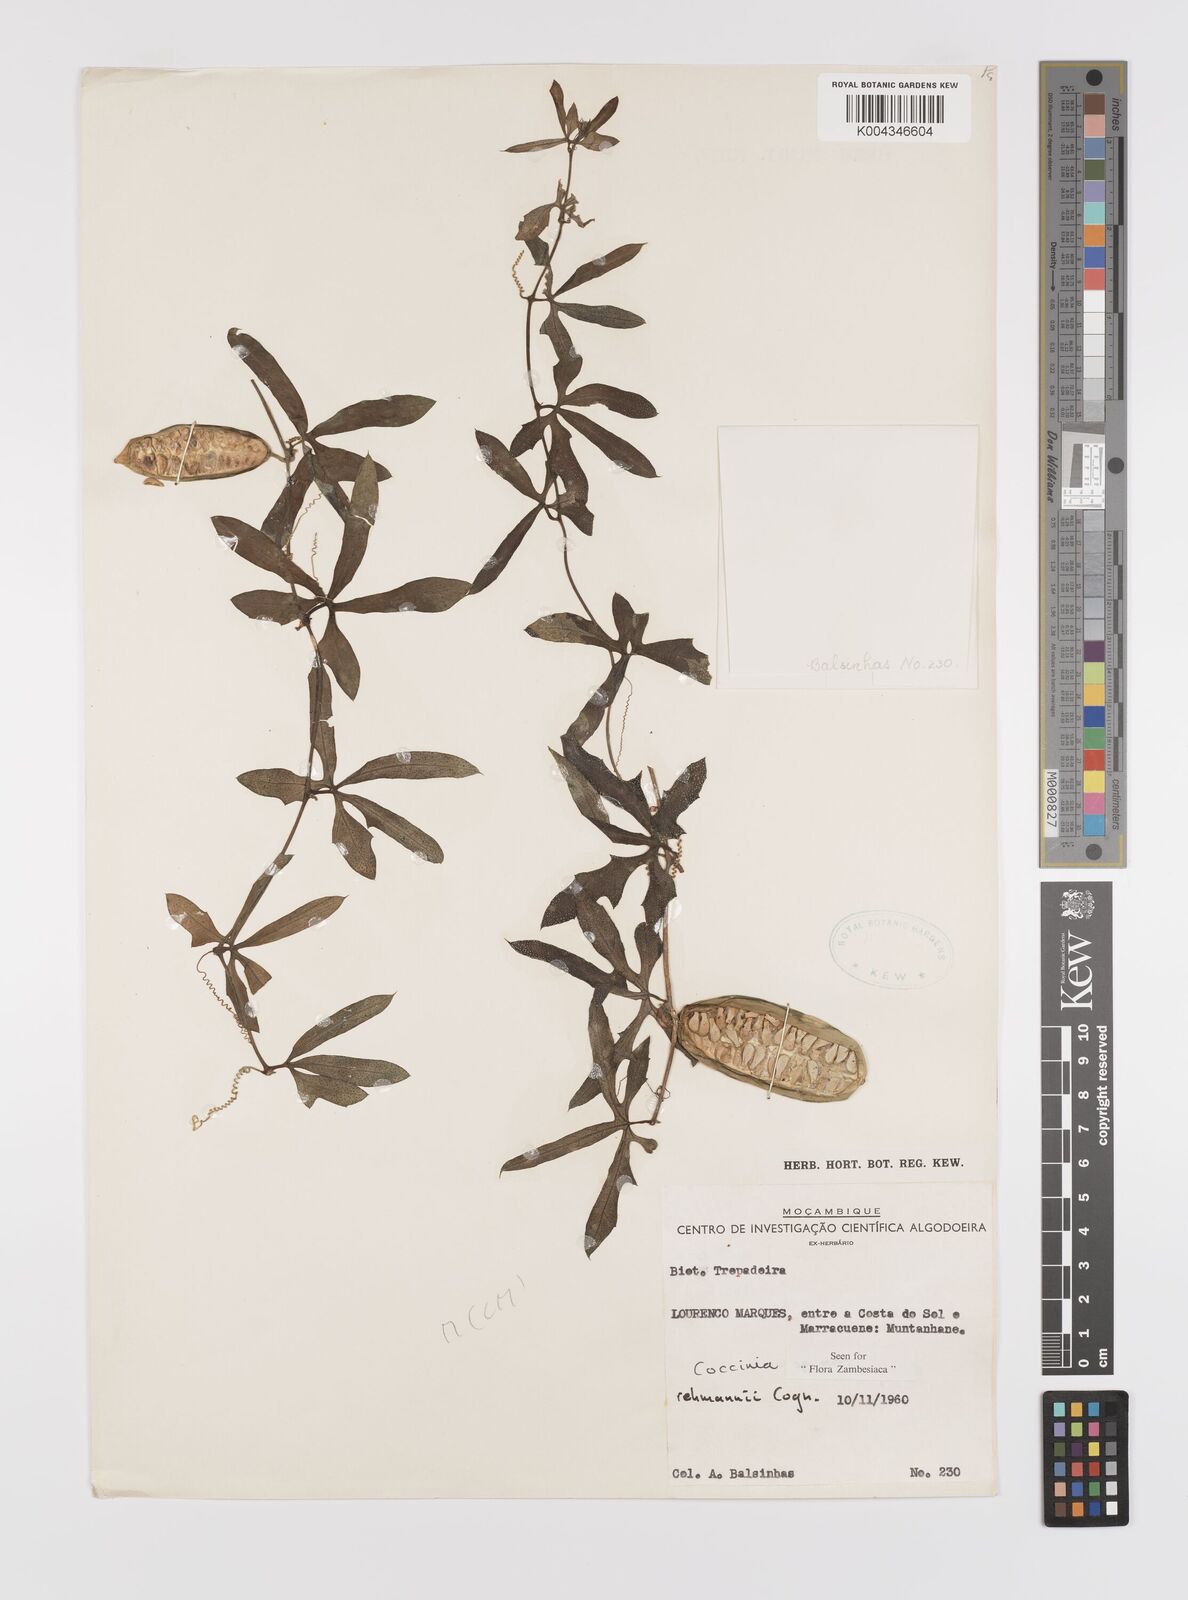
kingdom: Plantae
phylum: Tracheophyta
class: Magnoliopsida
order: Cucurbitales
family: Cucurbitaceae
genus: Coccinia
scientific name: Coccinia rehmannii
